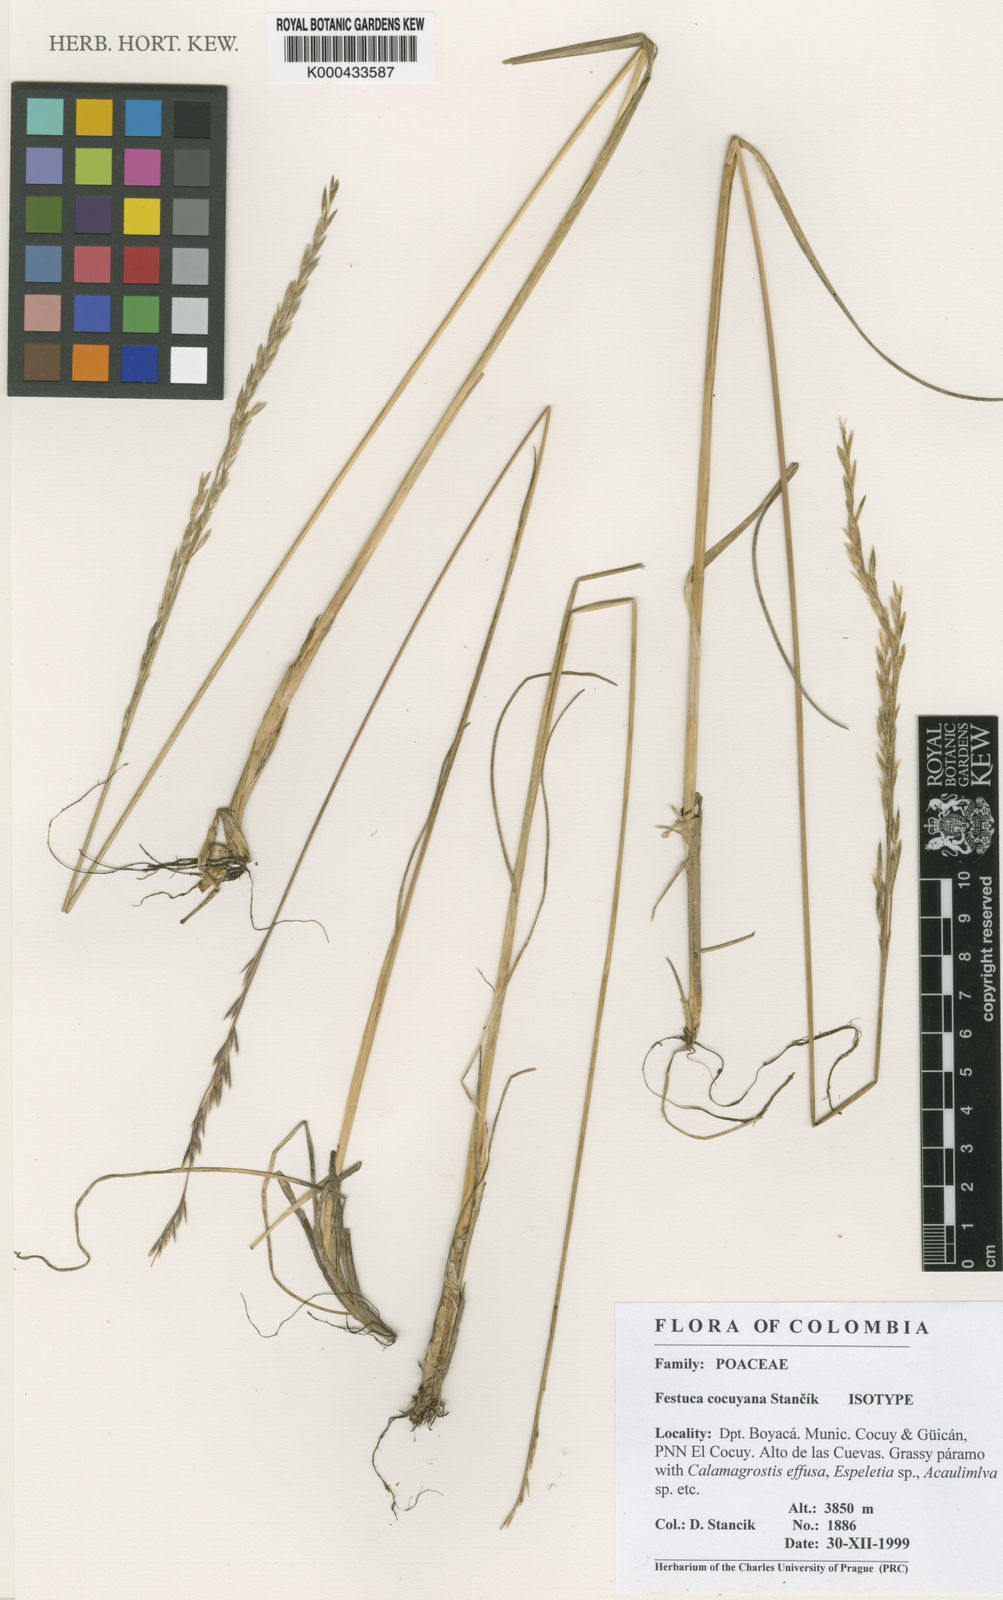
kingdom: Plantae
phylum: Tracheophyta
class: Liliopsida
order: Poales
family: Poaceae
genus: Festuca
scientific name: Festuca
